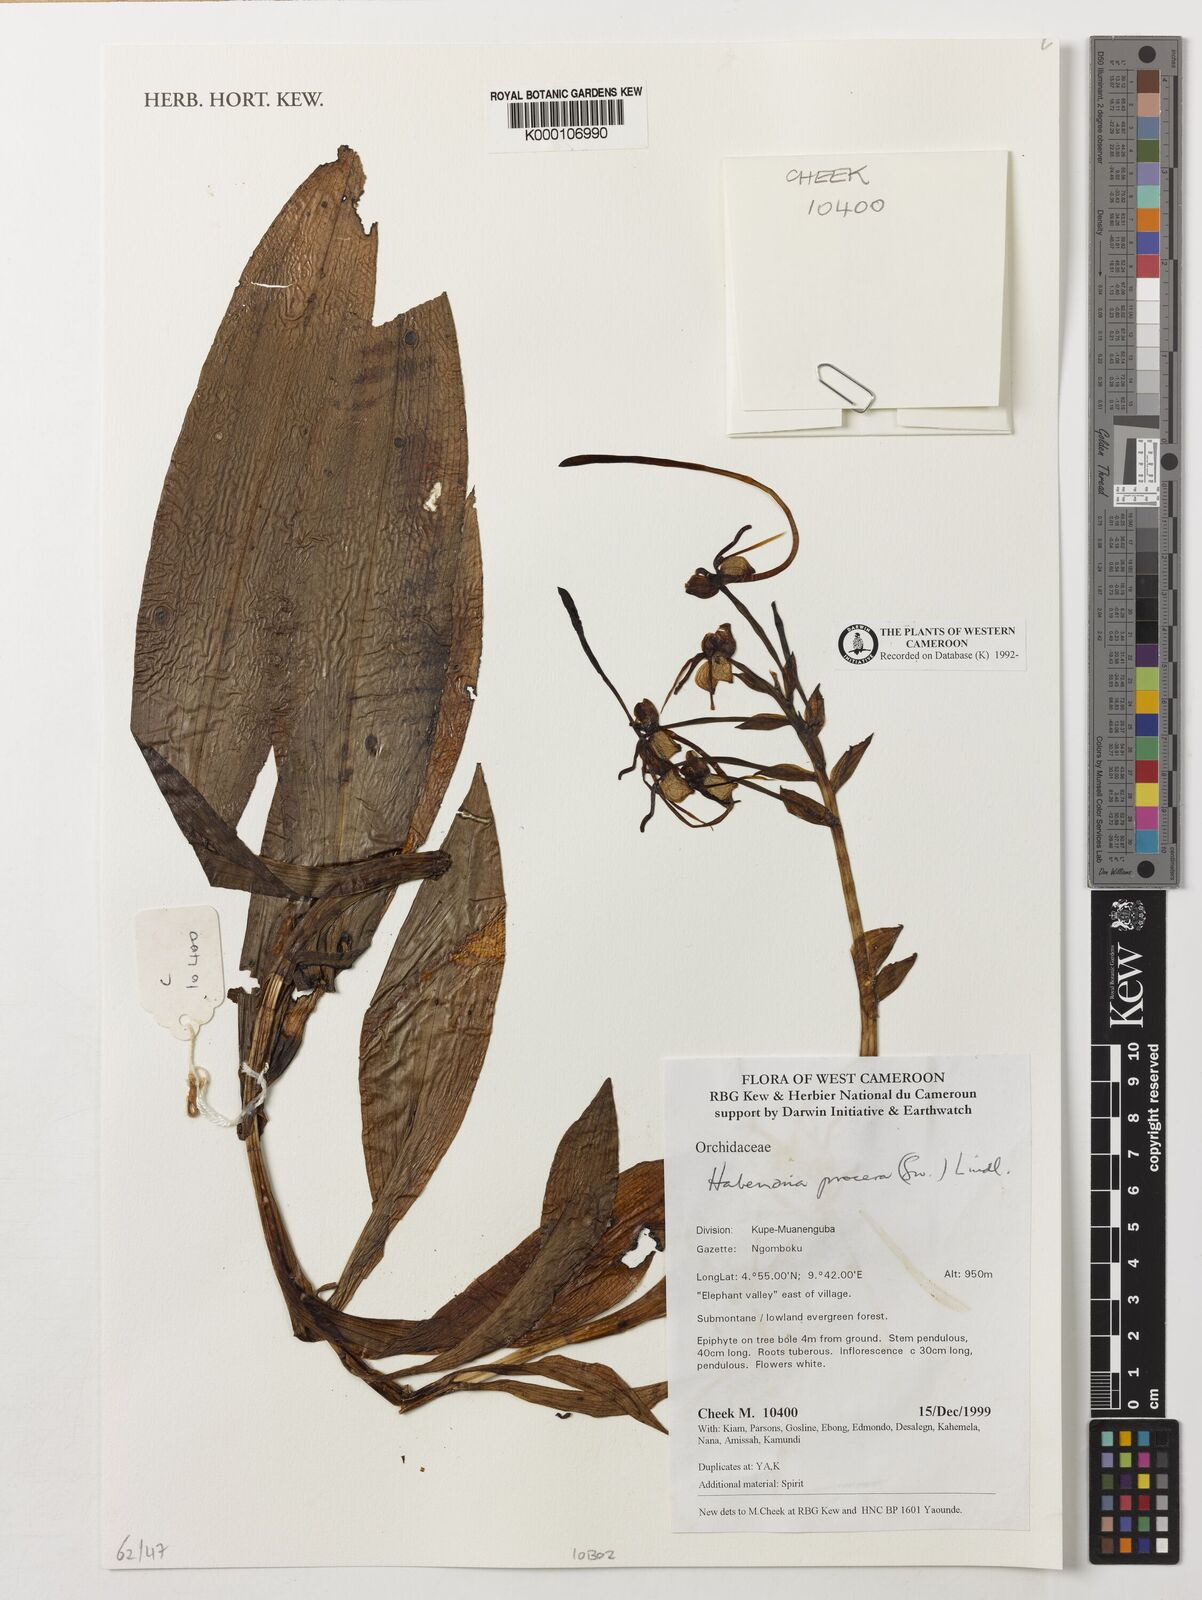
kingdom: Plantae
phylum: Tracheophyta
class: Liliopsida
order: Asparagales
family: Orchidaceae
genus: Habenaria
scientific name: Habenaria procera
